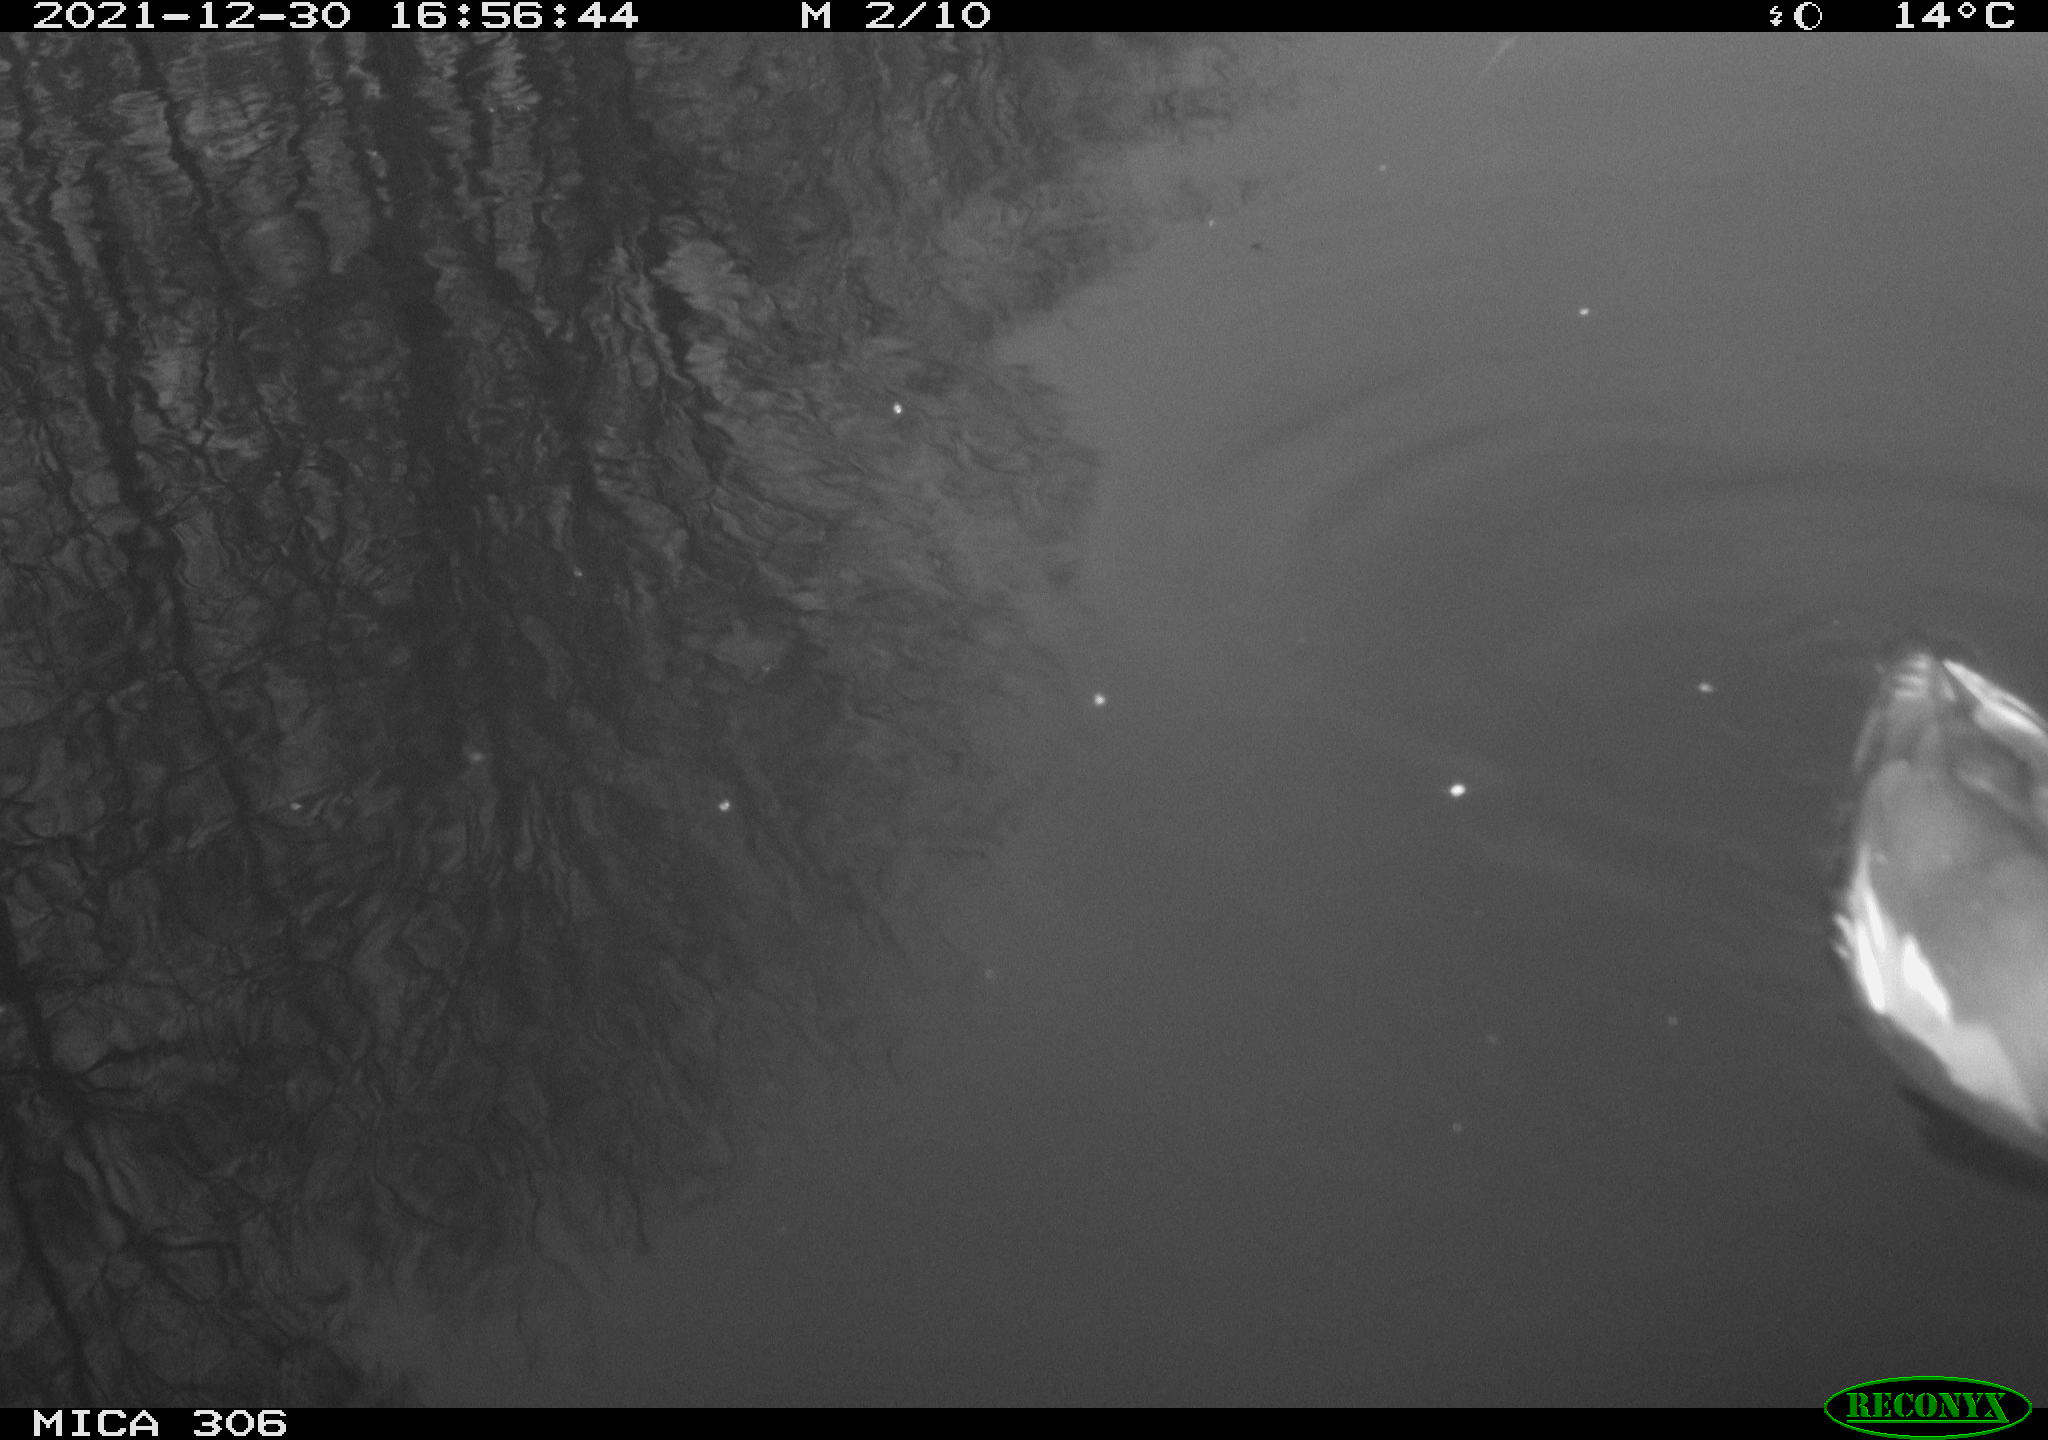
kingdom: Animalia
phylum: Chordata
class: Aves
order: Gruiformes
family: Rallidae
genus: Gallinula
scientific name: Gallinula chloropus
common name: Common moorhen
